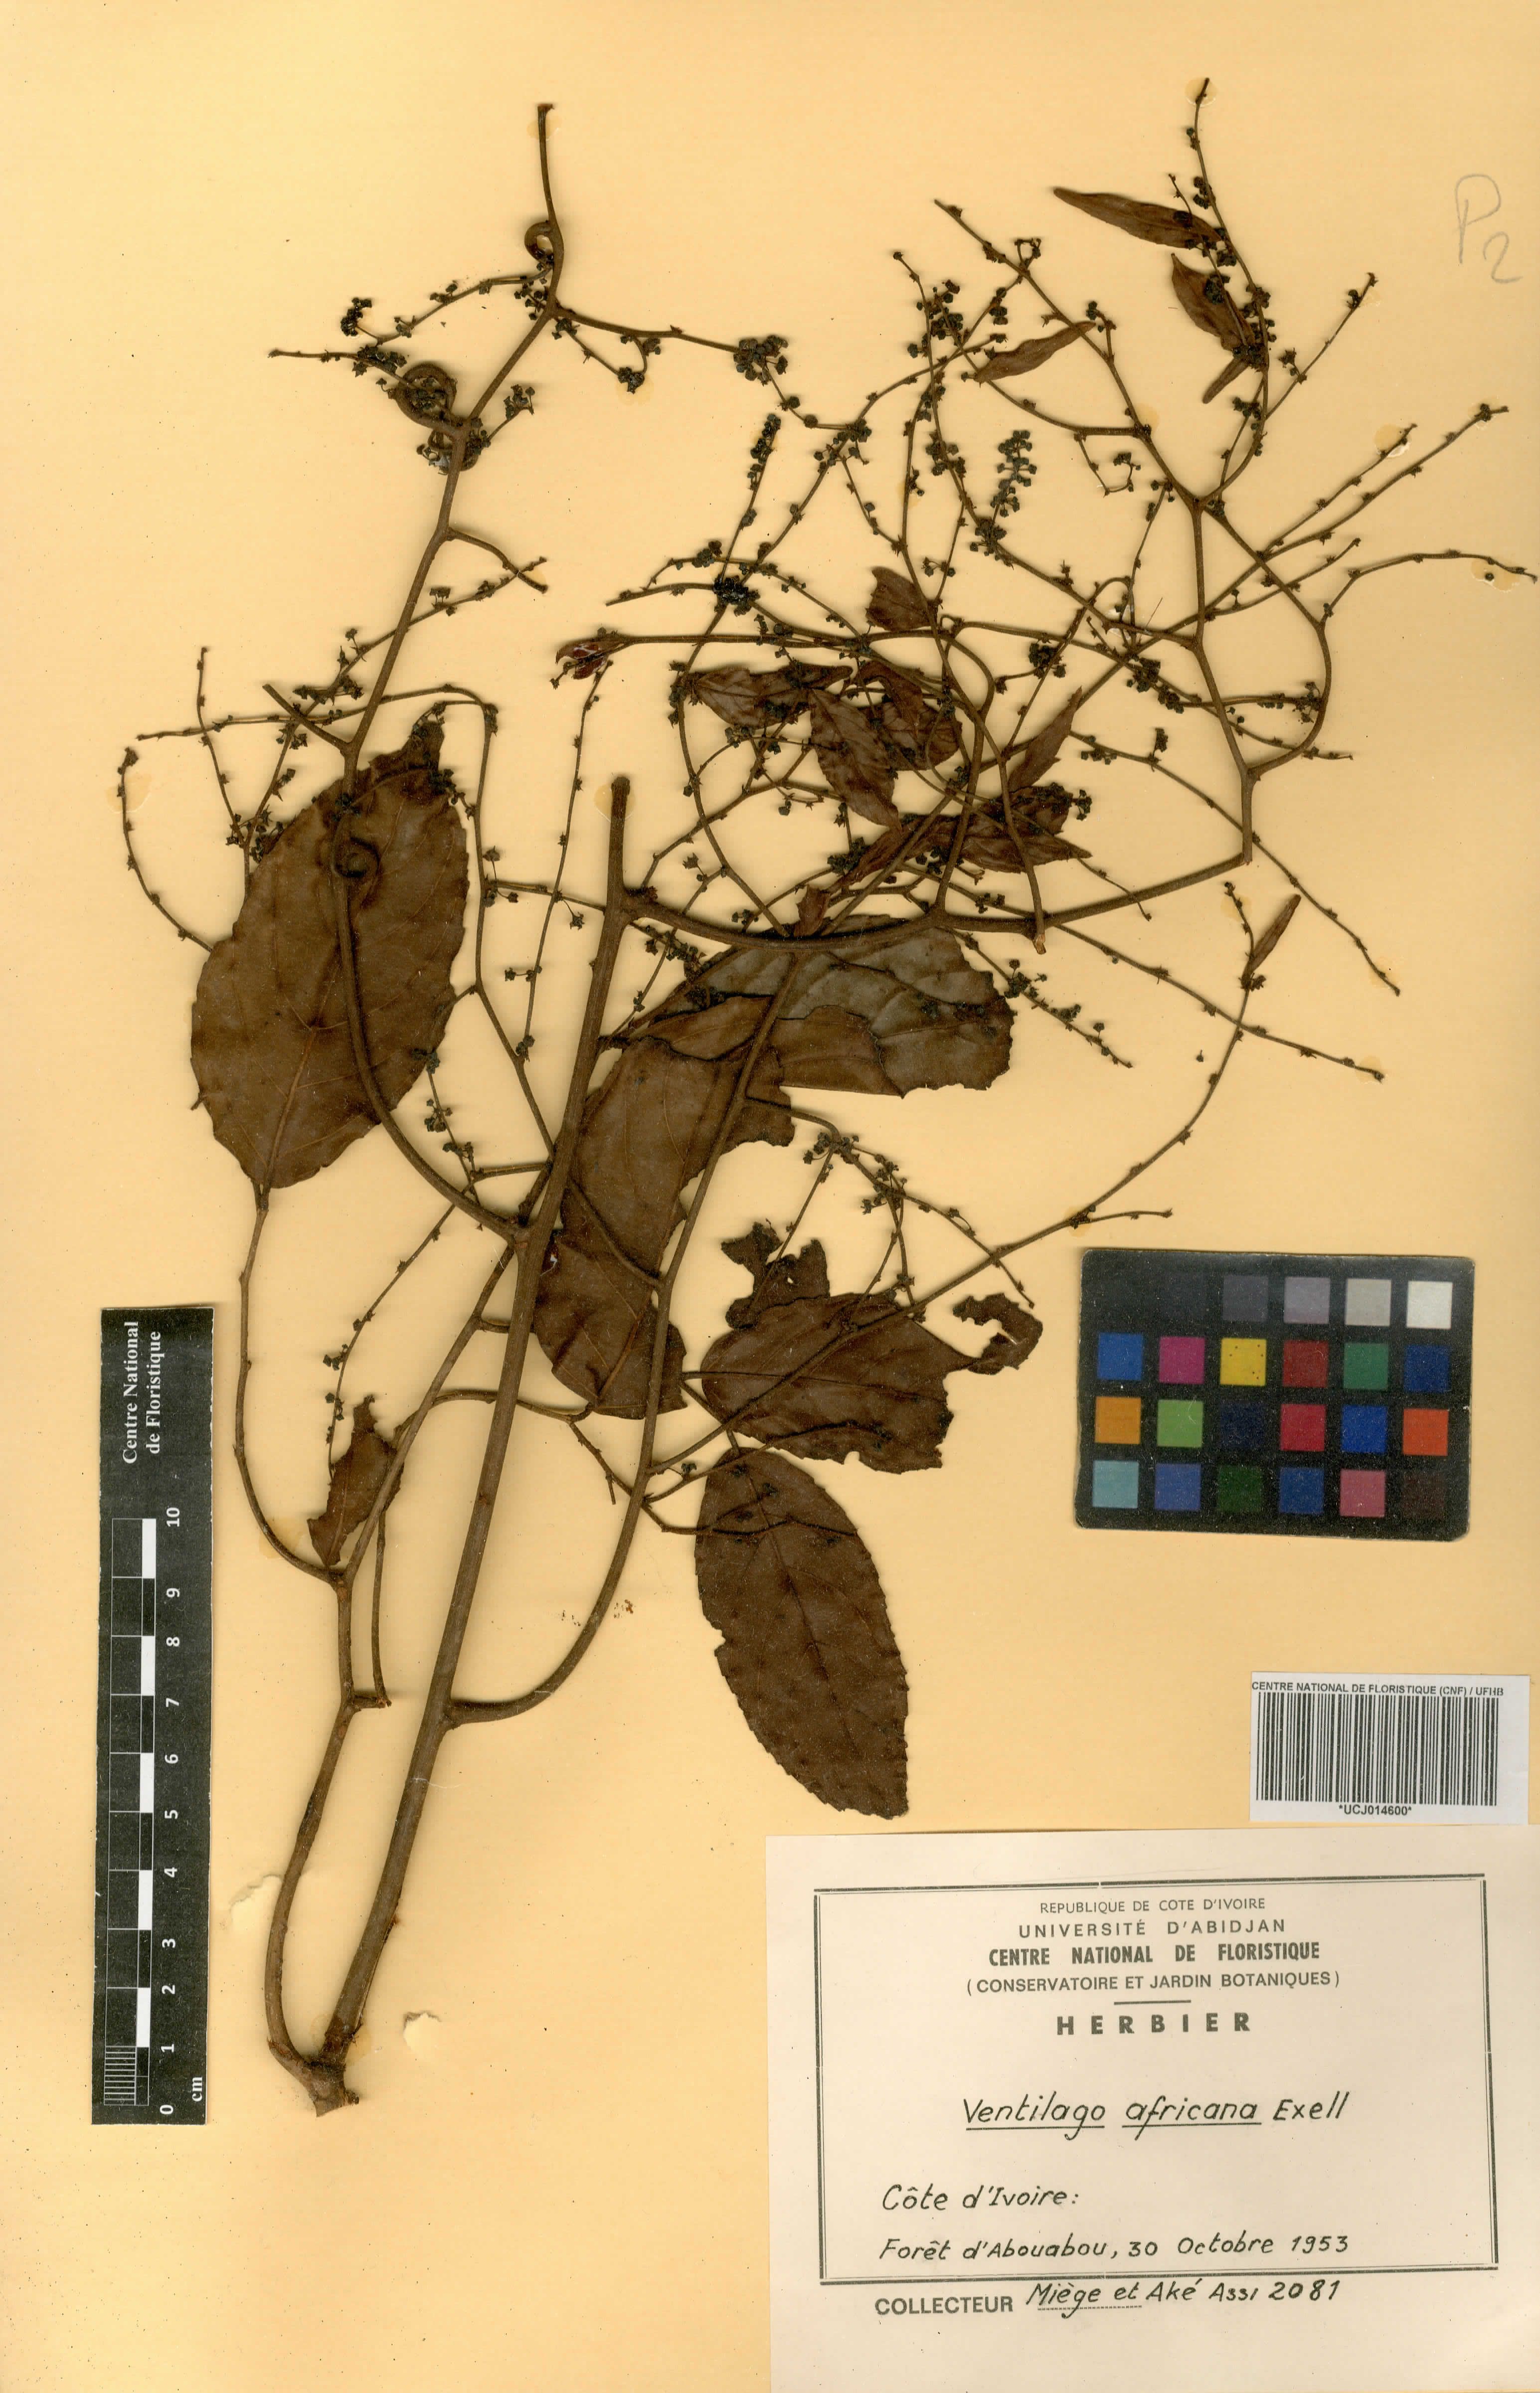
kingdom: Plantae
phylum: Tracheophyta
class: Magnoliopsida
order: Rosales
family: Rhamnaceae
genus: Ventilago
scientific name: Ventilago africana
